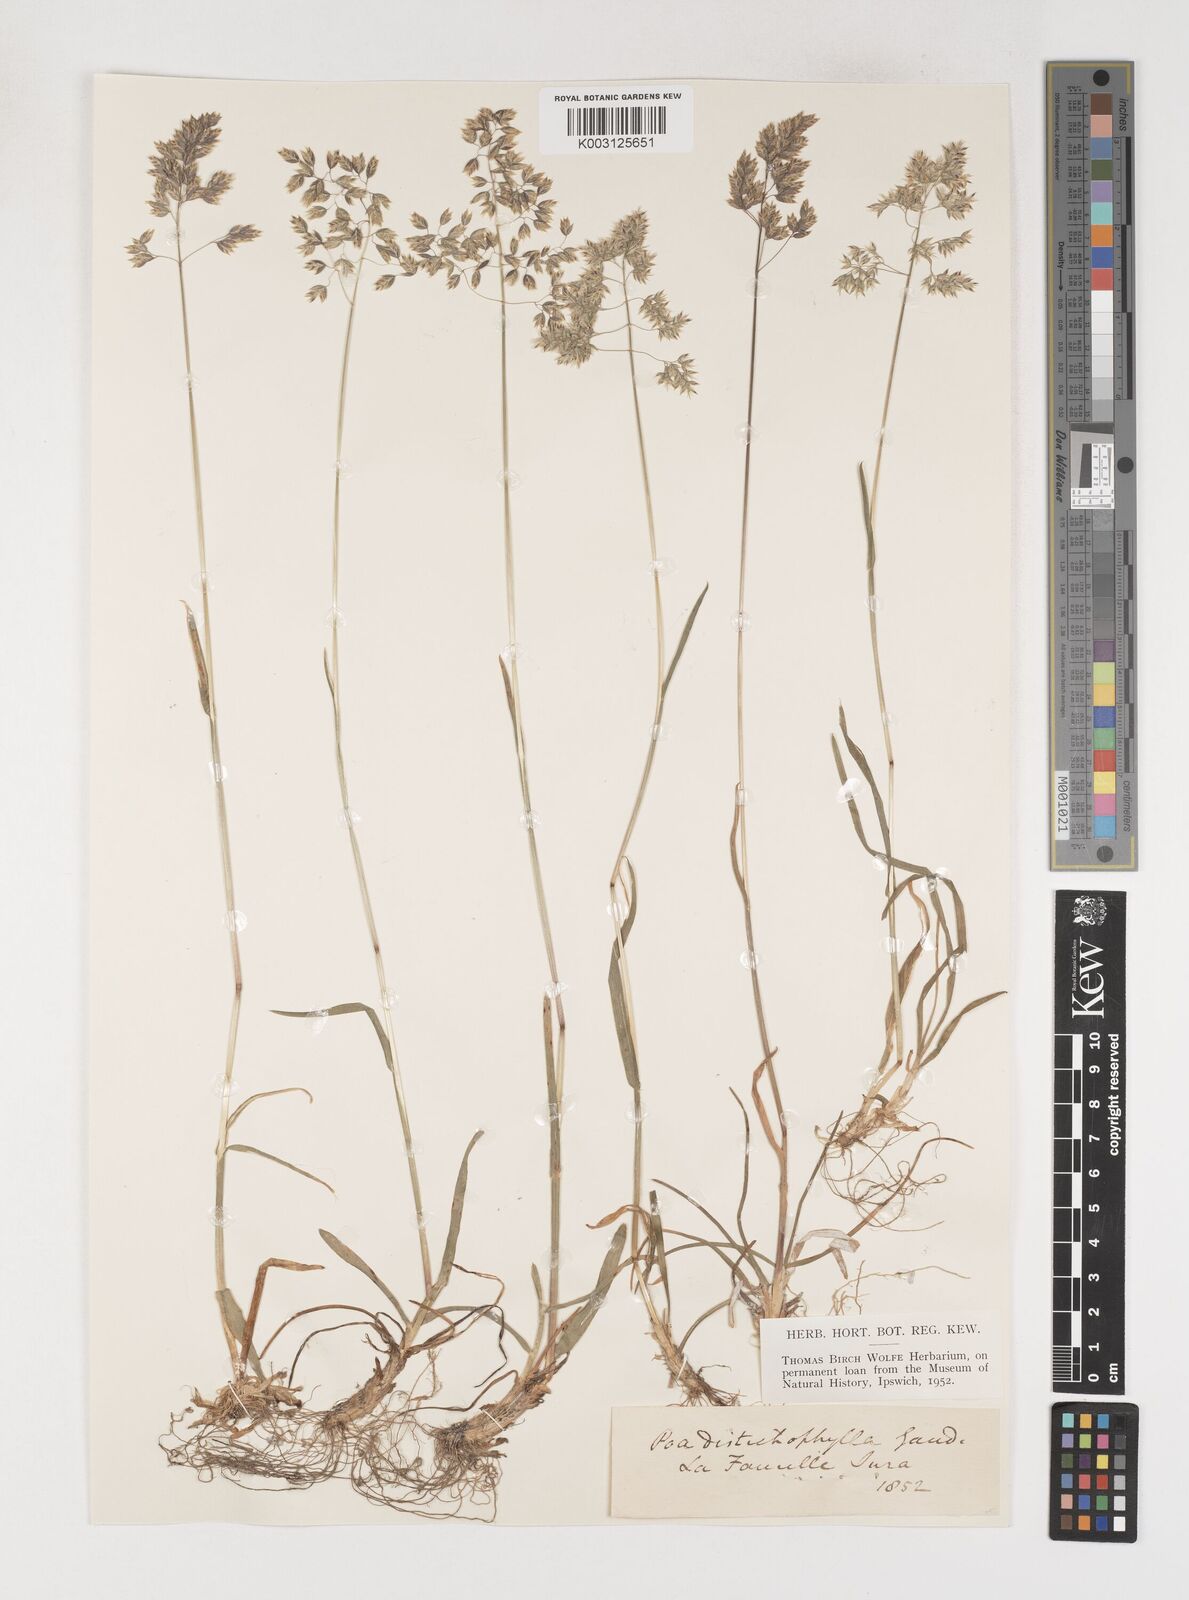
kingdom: Plantae
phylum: Tracheophyta
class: Liliopsida
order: Poales
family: Poaceae
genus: Poa
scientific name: Poa
